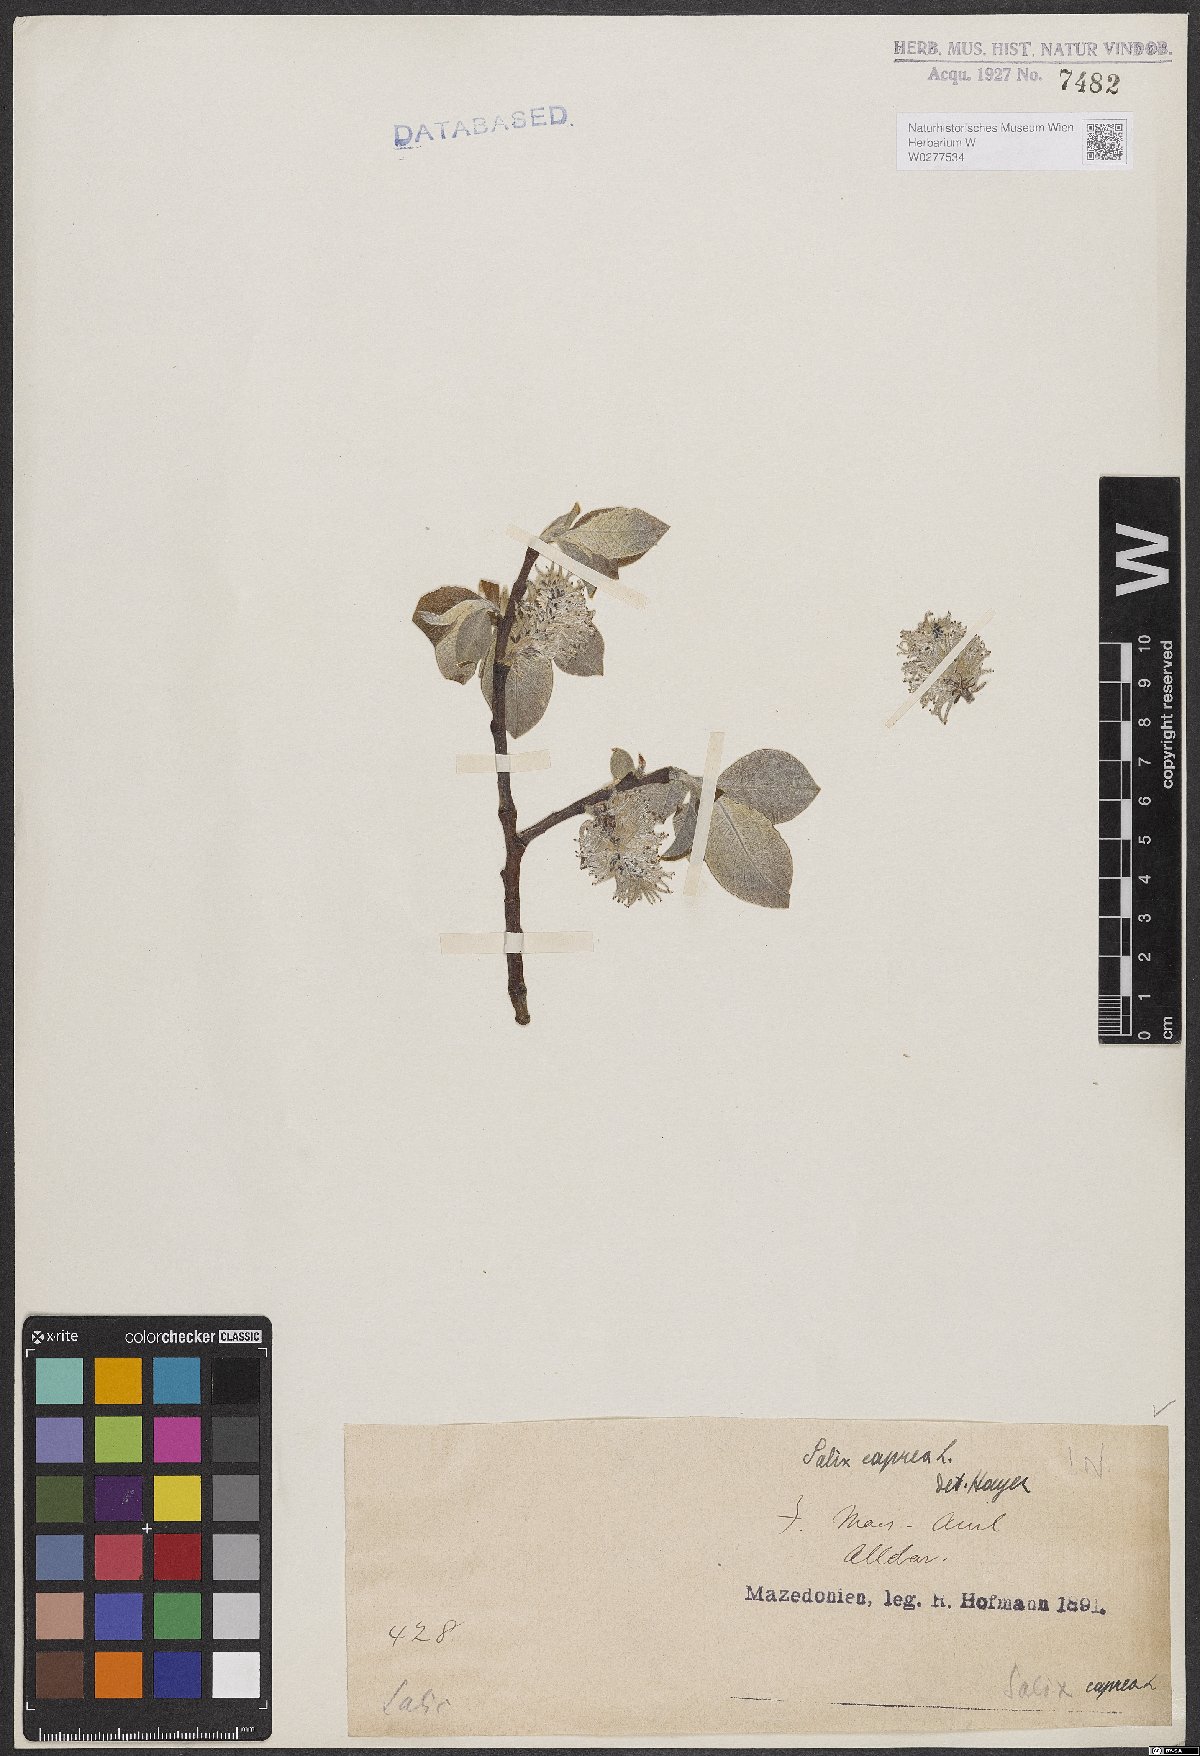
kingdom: Plantae
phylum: Tracheophyta
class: Magnoliopsida
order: Malpighiales
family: Salicaceae
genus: Salix
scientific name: Salix caprea
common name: Goat willow
